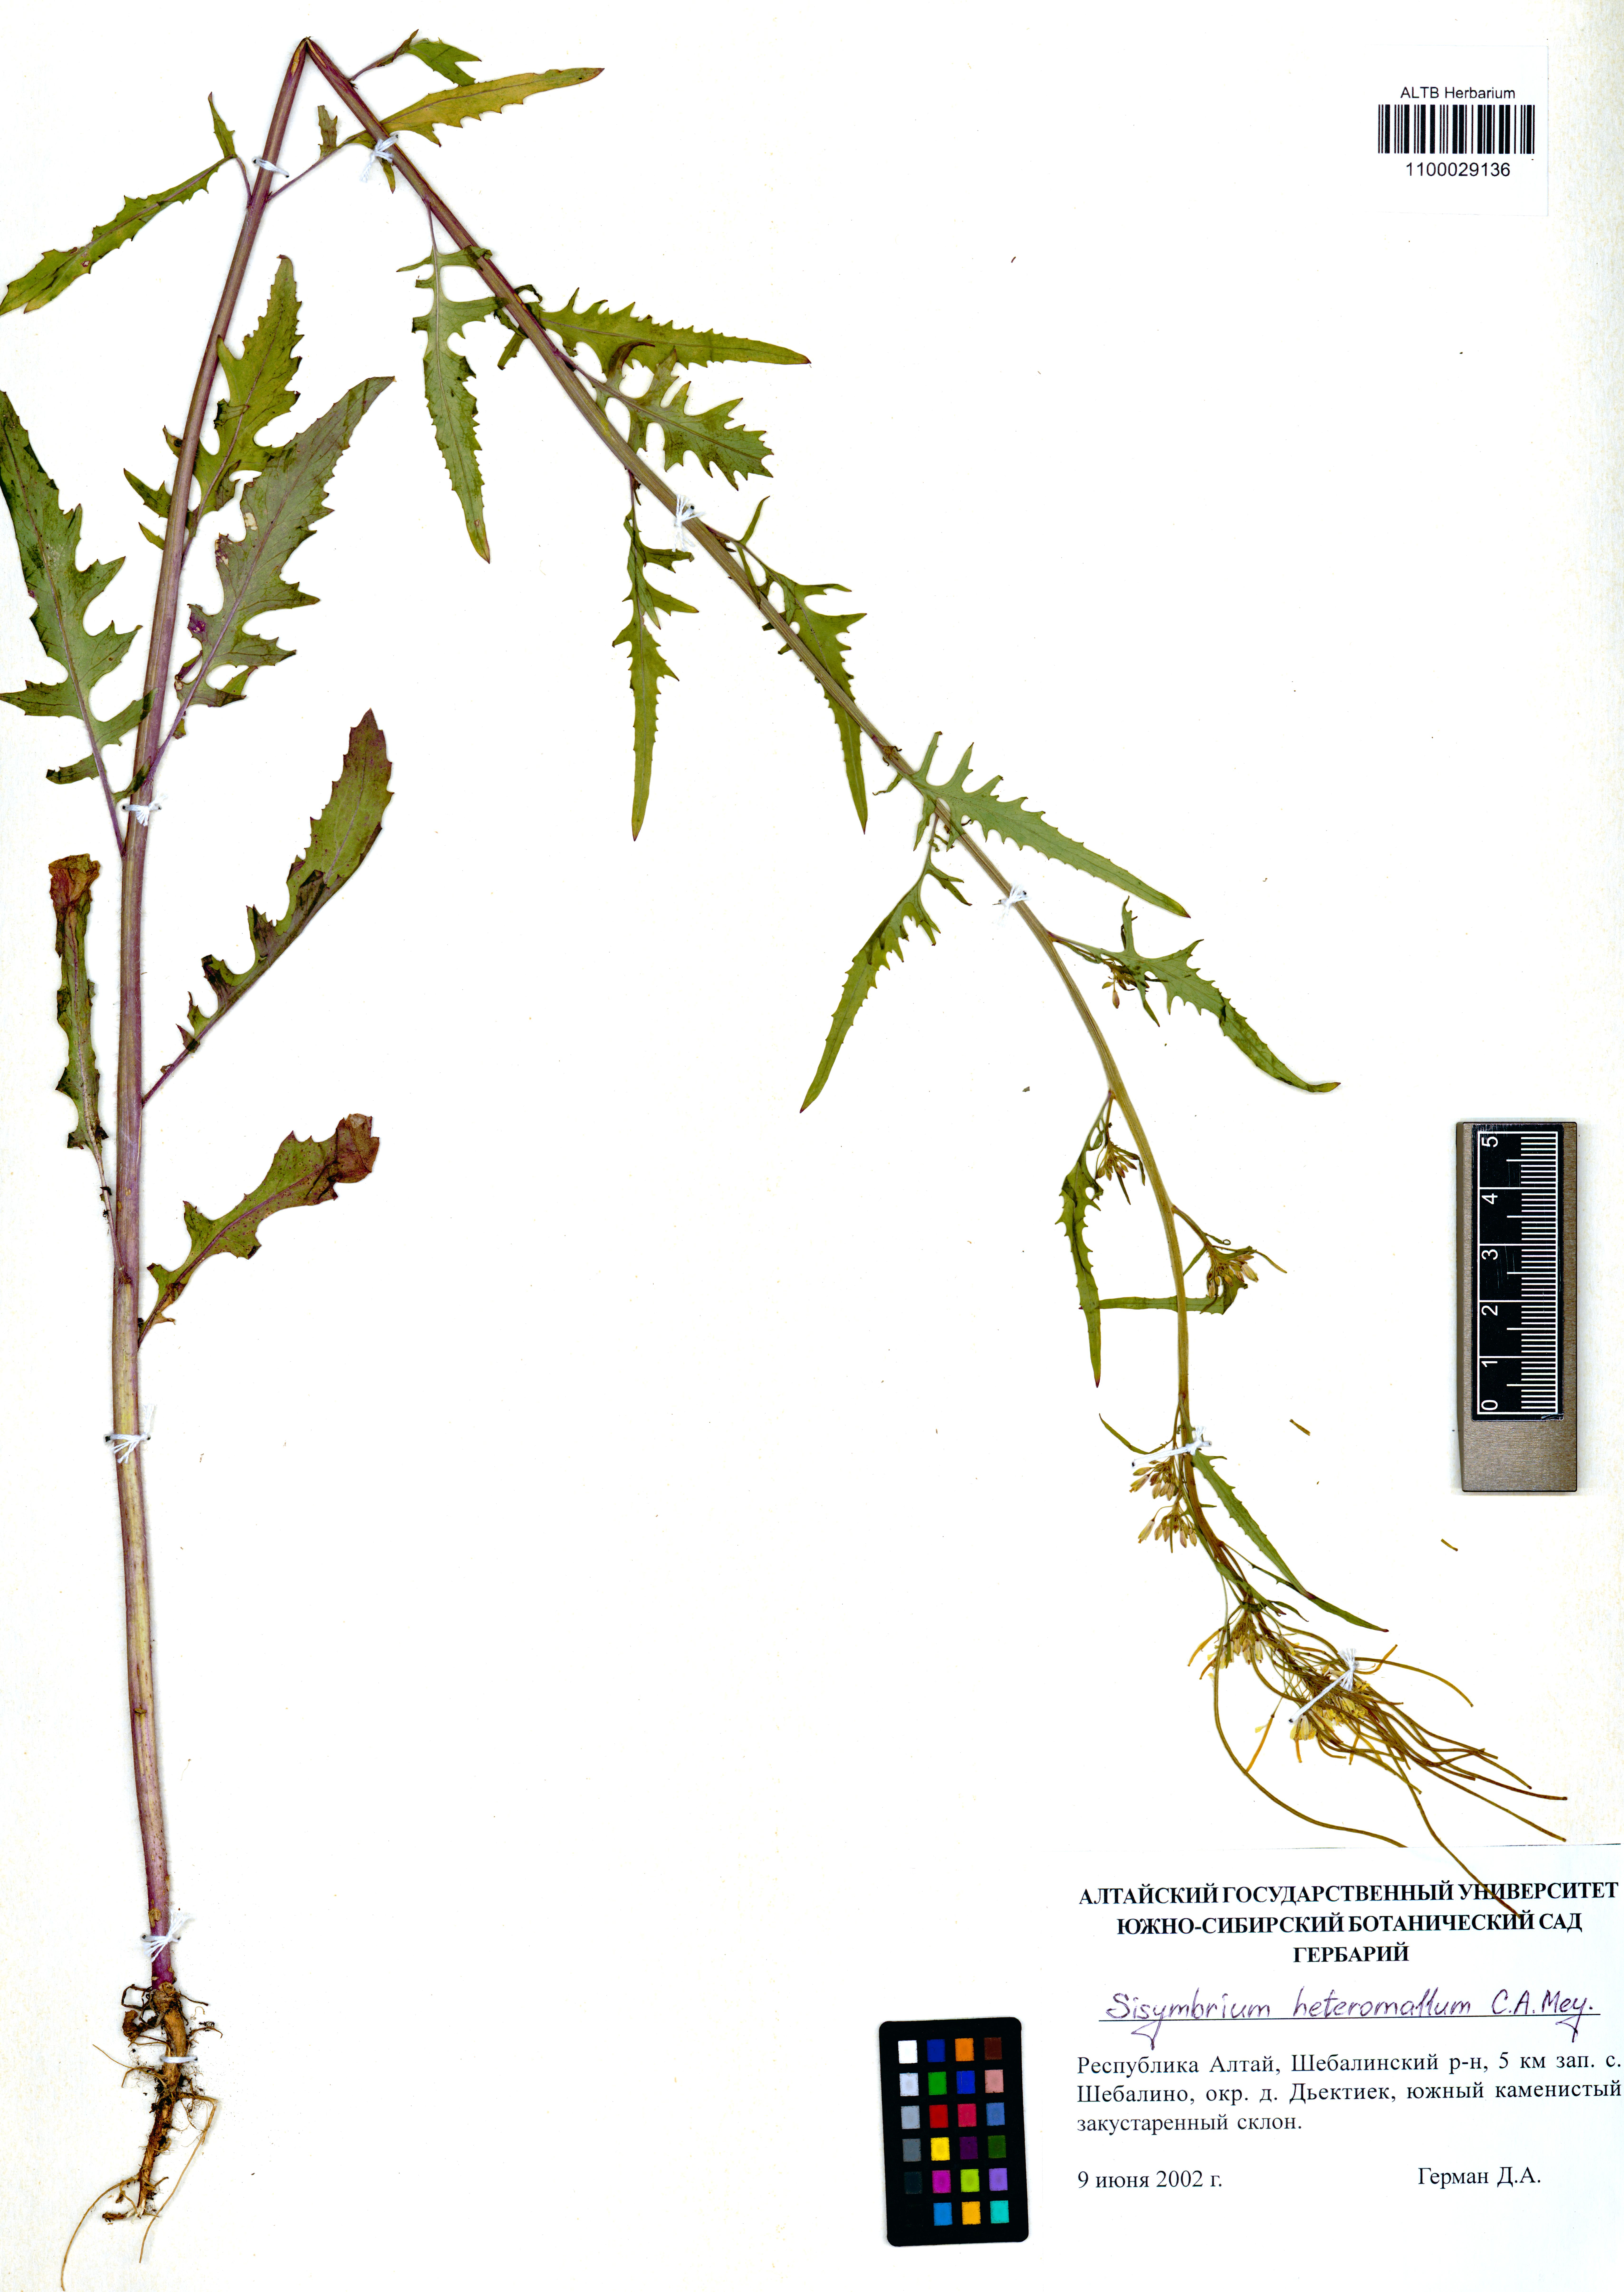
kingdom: Plantae
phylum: Tracheophyta
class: Magnoliopsida
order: Brassicales
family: Brassicaceae
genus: Sisymbrium
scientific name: Sisymbrium heteromallum
